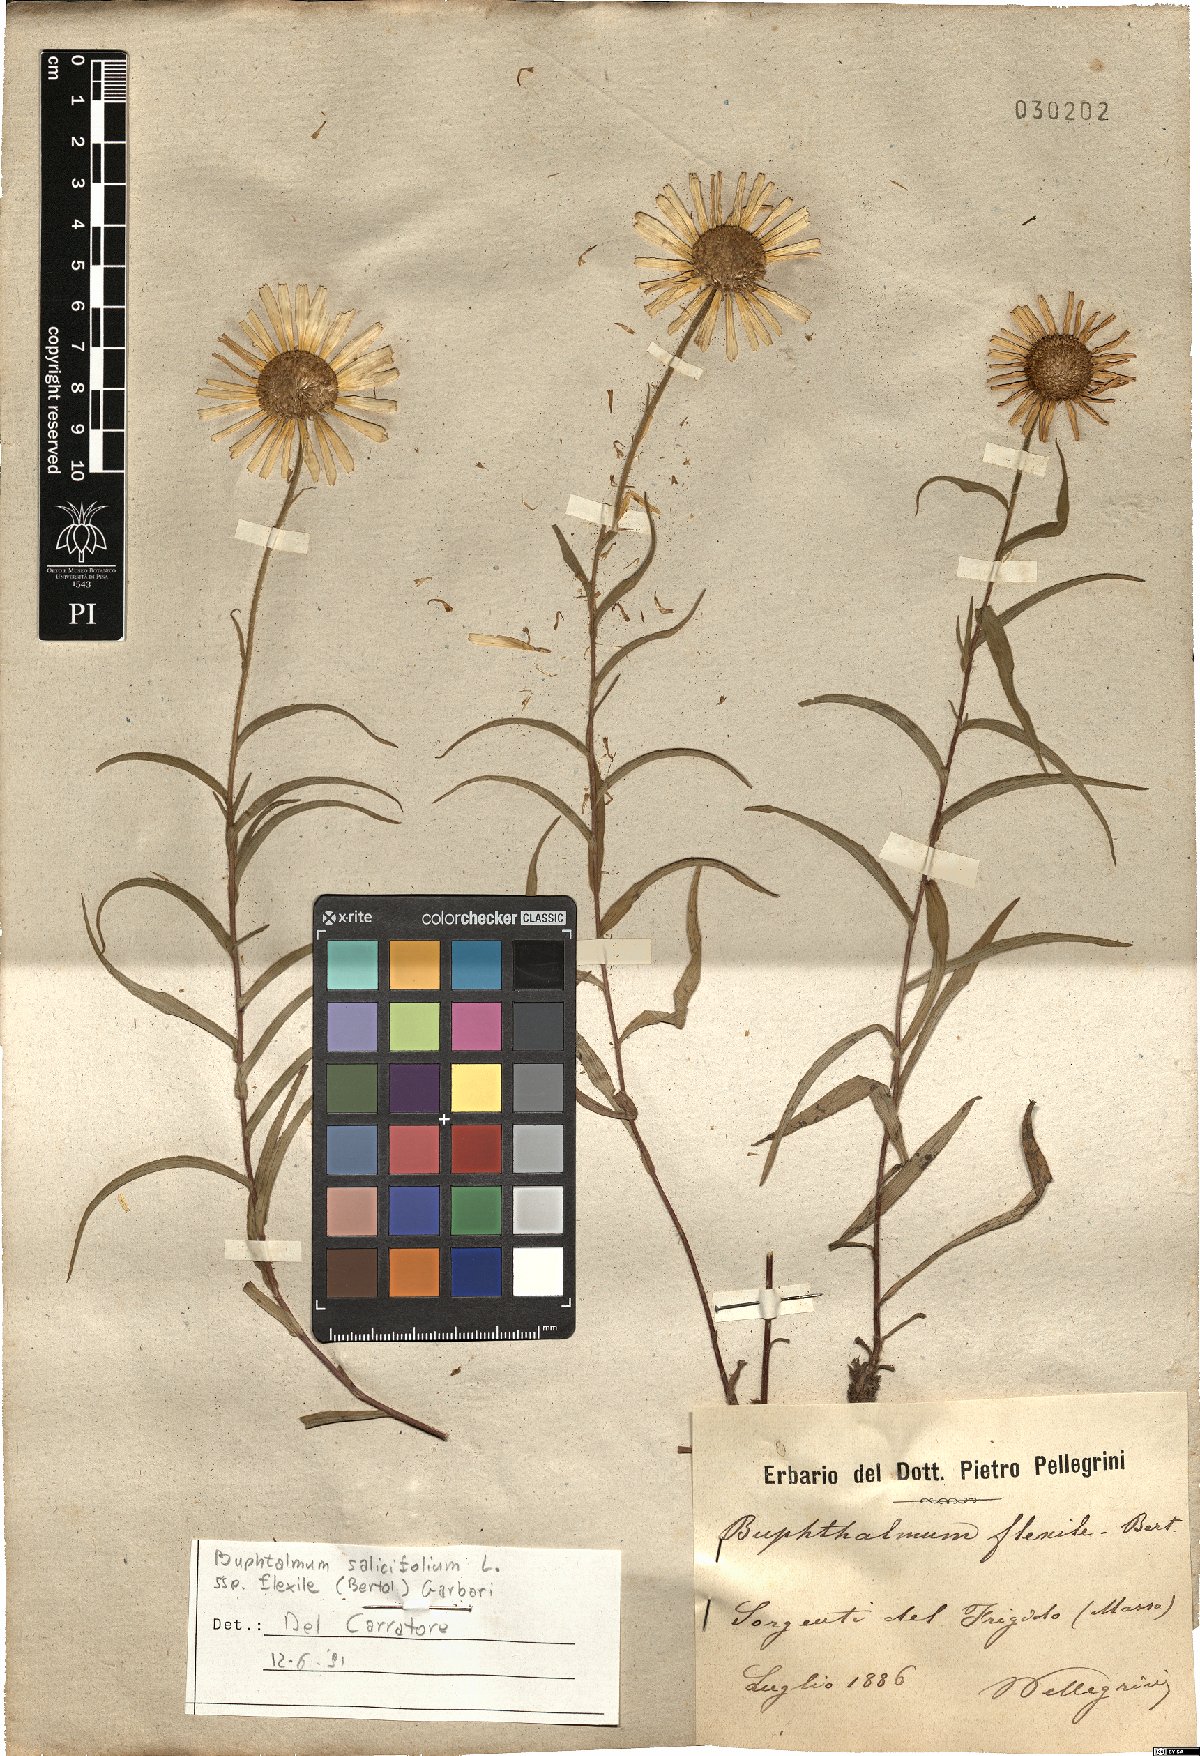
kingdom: Plantae
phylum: Tracheophyta
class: Magnoliopsida
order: Asterales
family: Asteraceae
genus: Buphthalmum
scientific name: Buphthalmum salicifolium
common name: Willow-leaved yellow-oxeye
